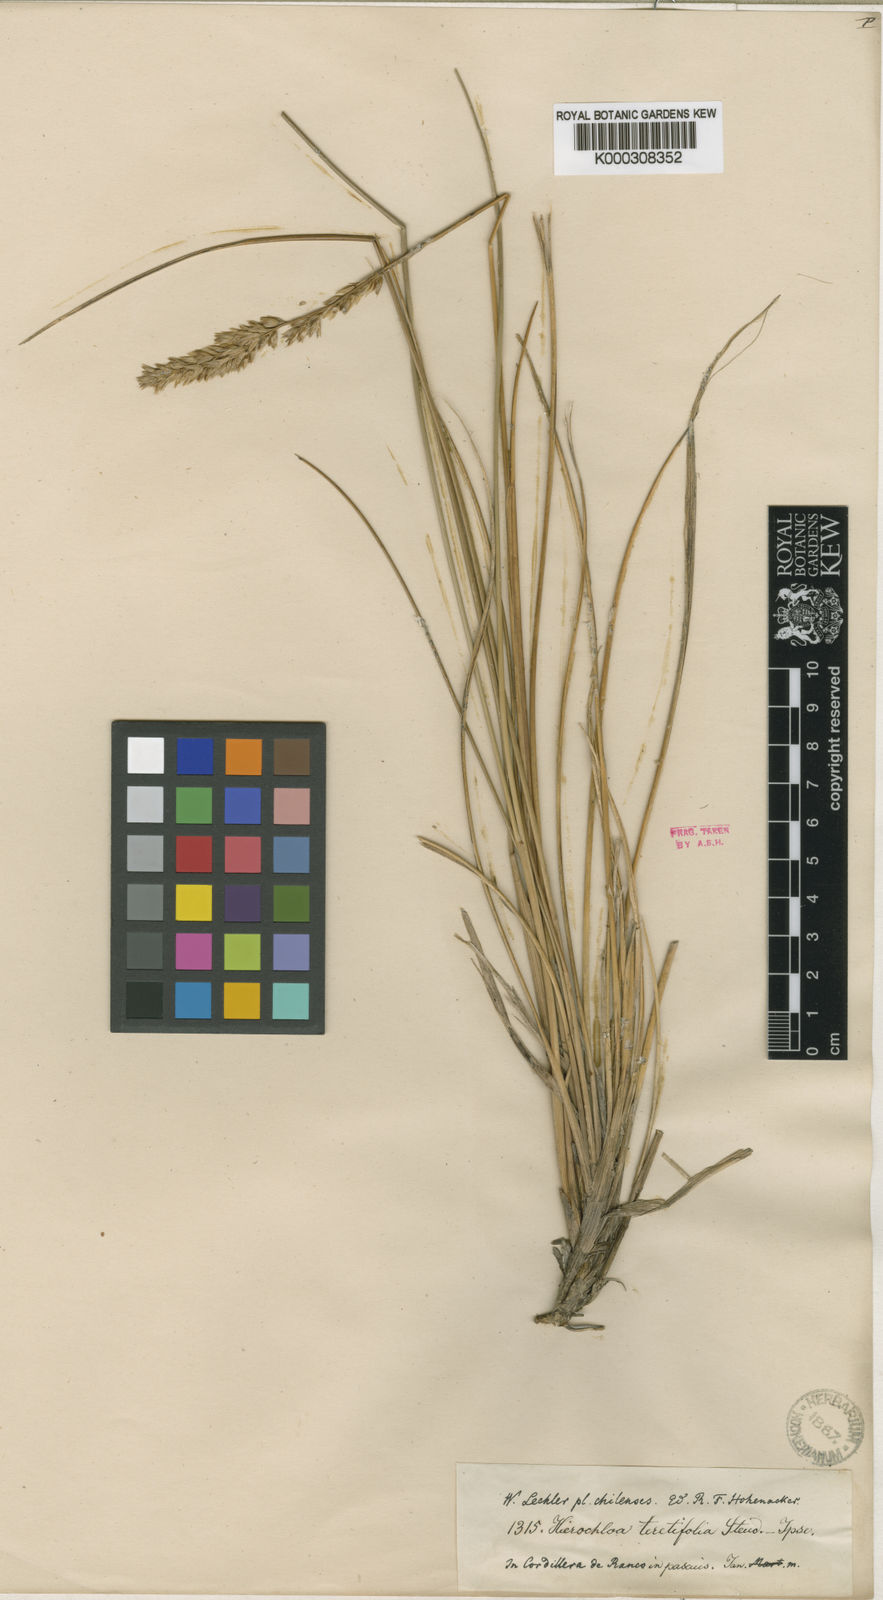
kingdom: Plantae
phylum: Tracheophyta
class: Liliopsida
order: Poales
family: Poaceae
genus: Anthoxanthum
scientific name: Anthoxanthum Hierochloe teretifolia
